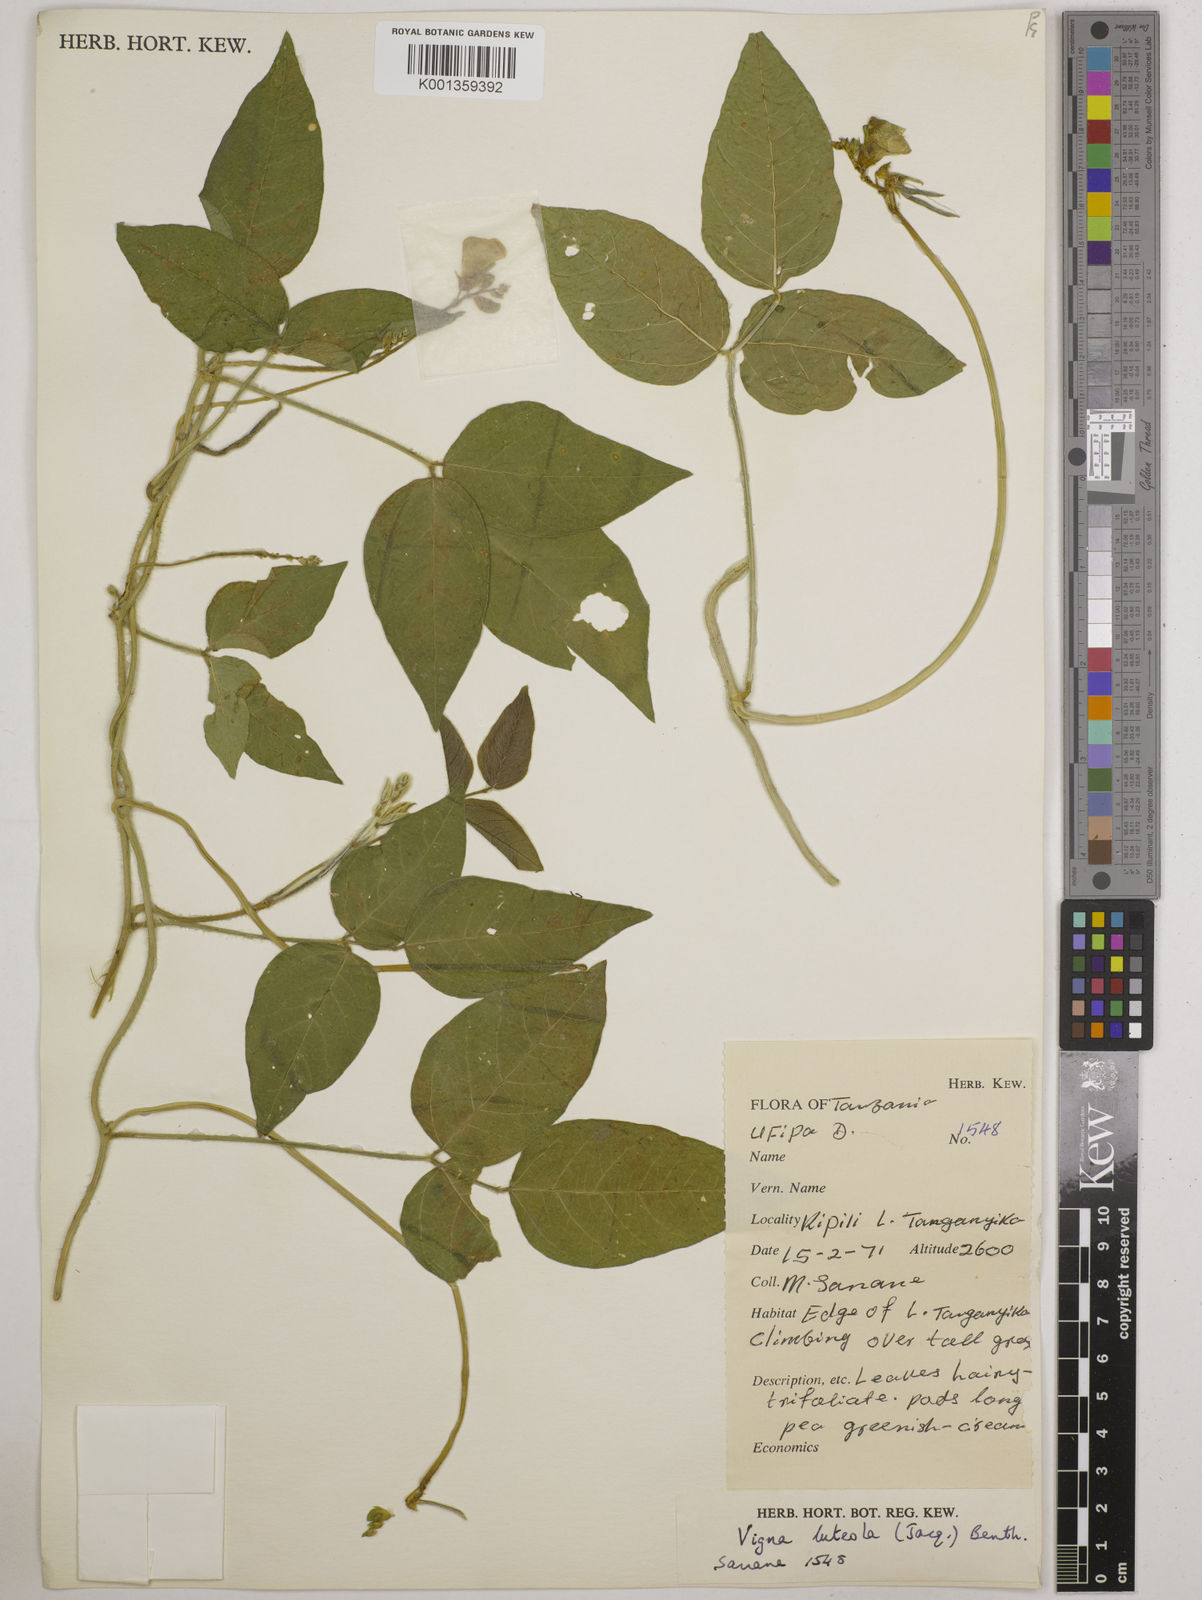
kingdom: Plantae
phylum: Tracheophyta
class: Magnoliopsida
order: Fabales
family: Fabaceae
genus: Vigna
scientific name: Vigna luteola
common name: Hairypod cowpea
